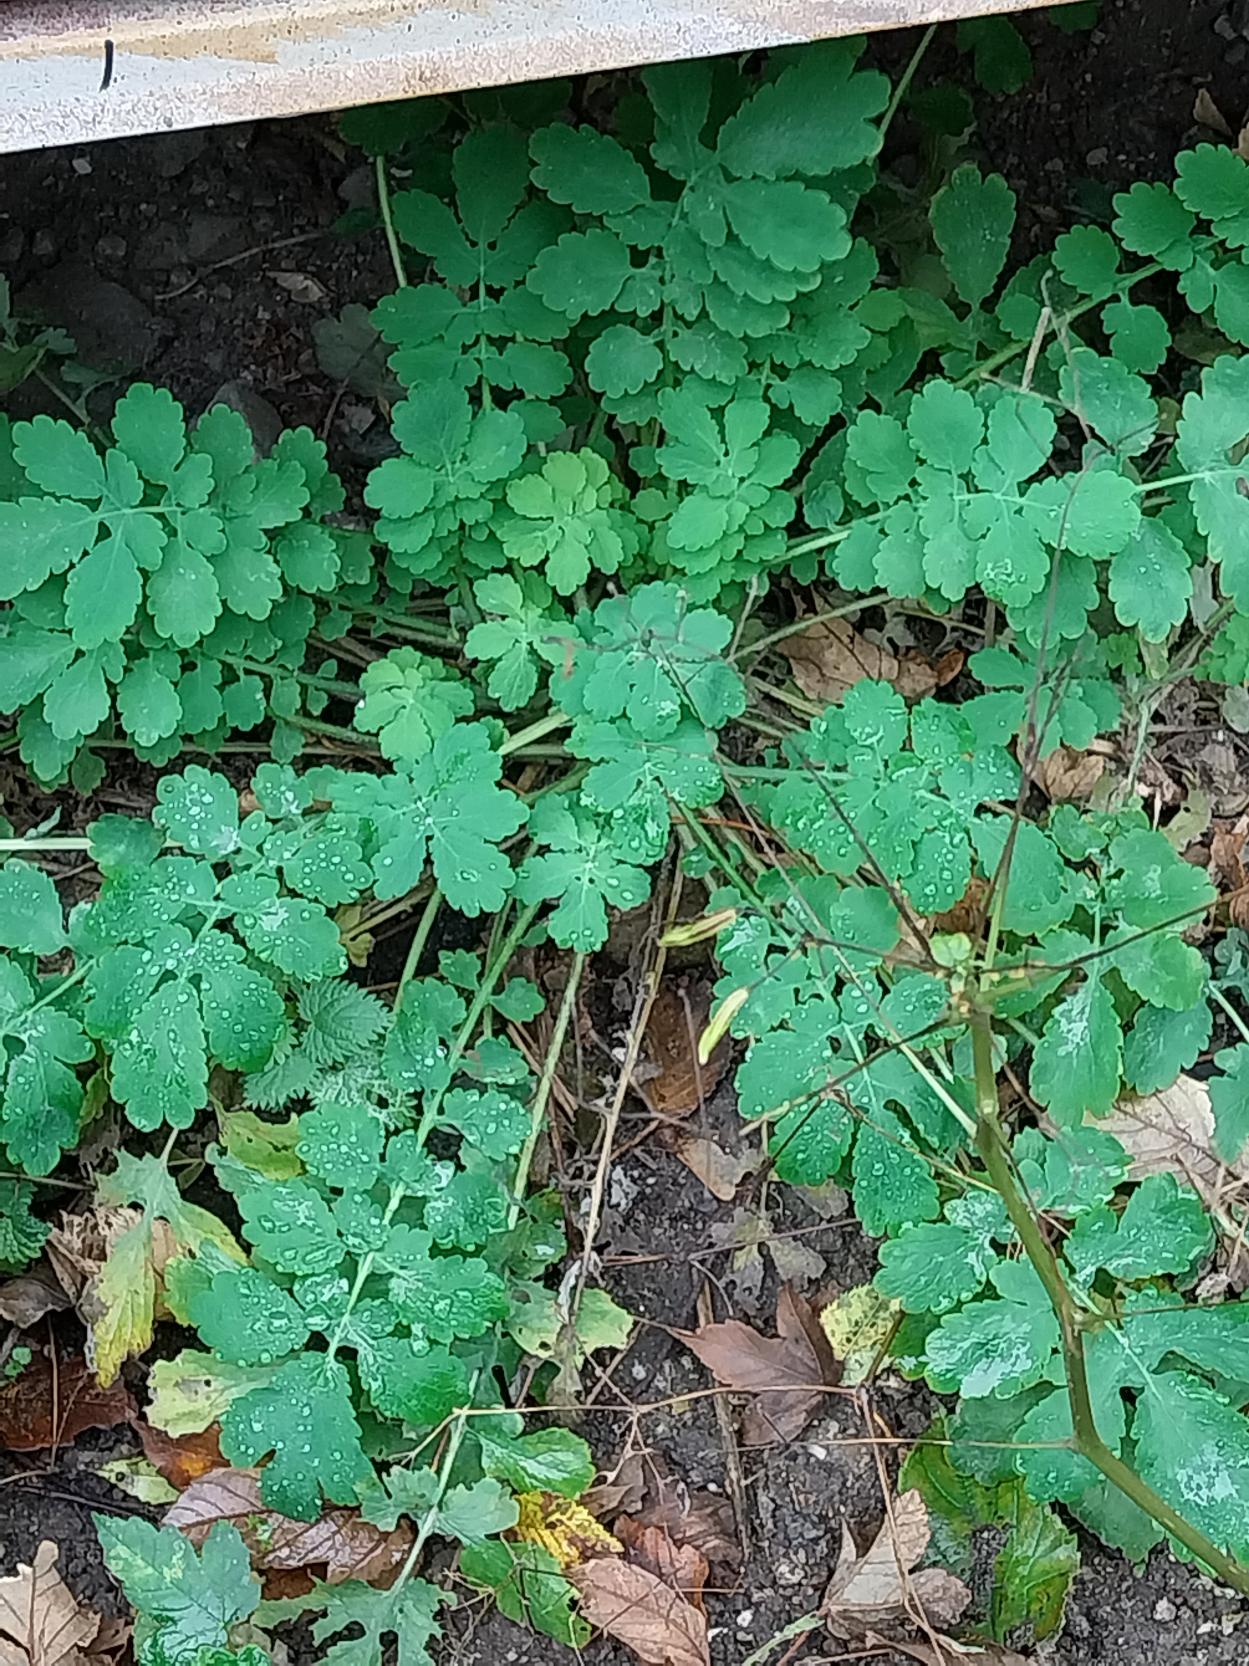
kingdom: Plantae
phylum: Tracheophyta
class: Magnoliopsida
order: Ranunculales
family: Papaveraceae
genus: Chelidonium
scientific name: Chelidonium majus
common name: Svaleurt
